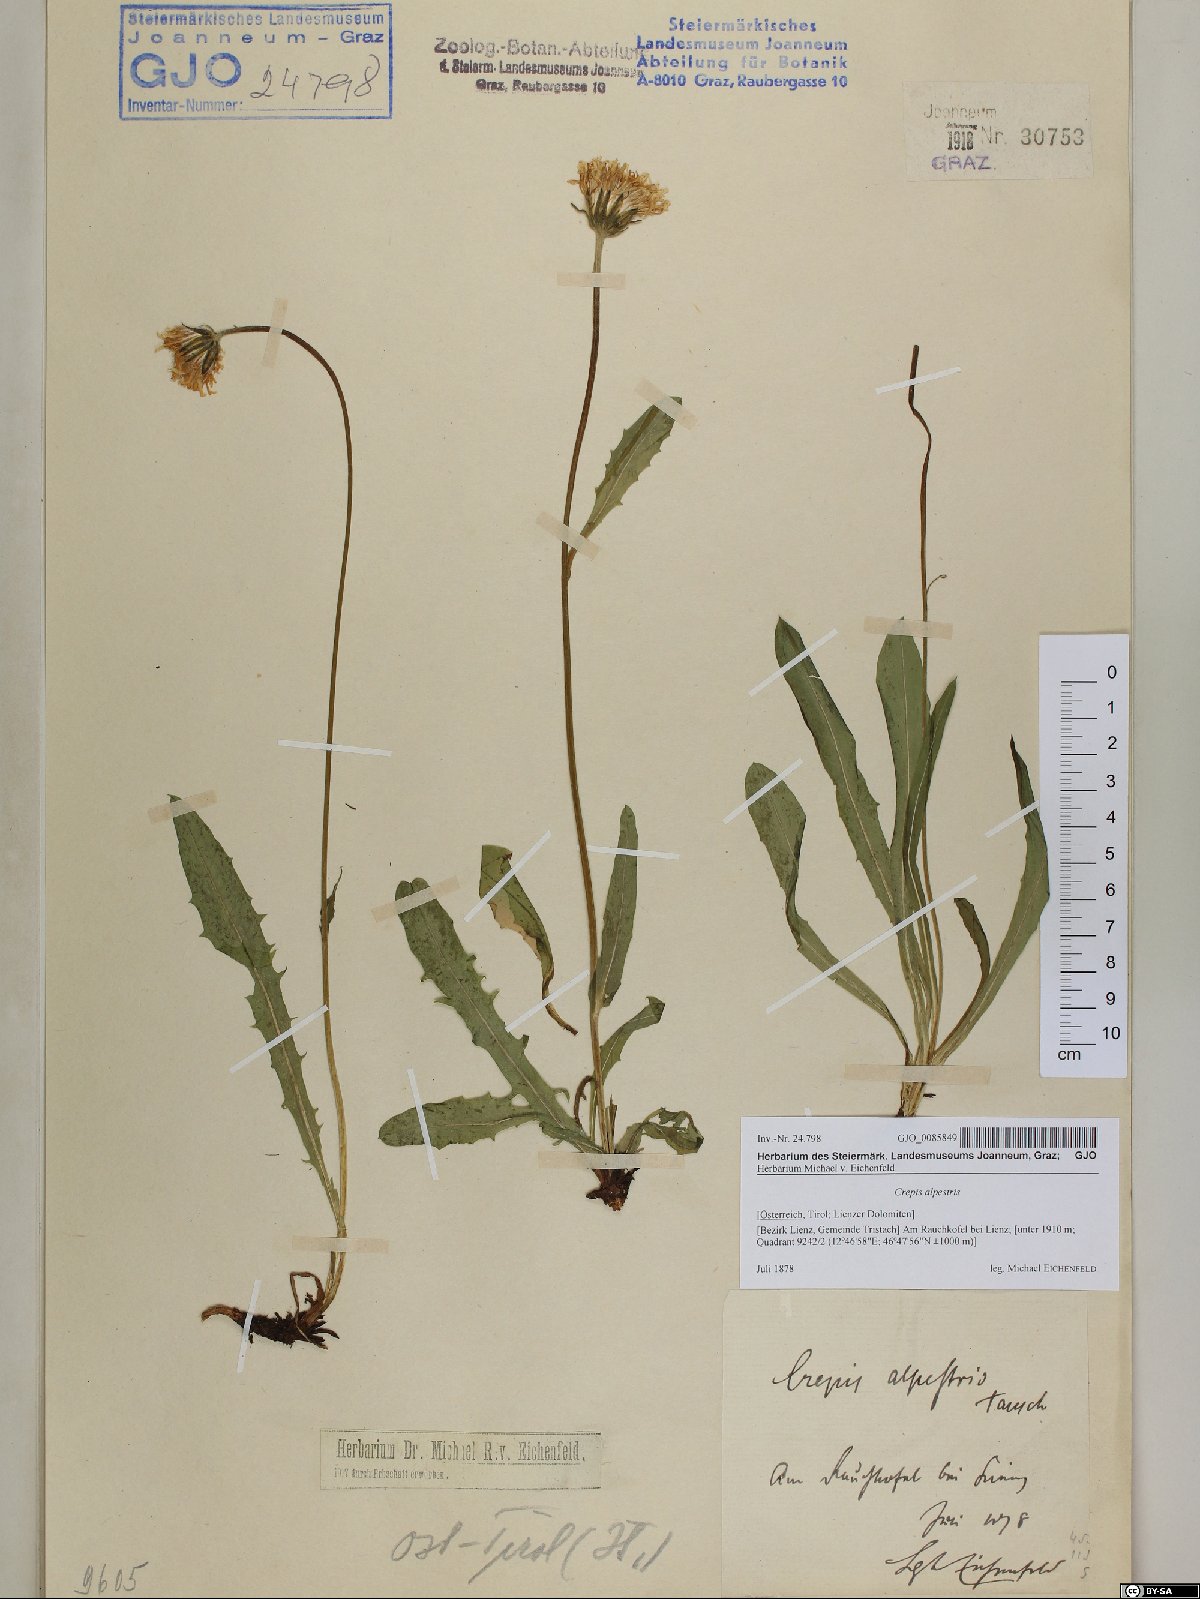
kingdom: Plantae
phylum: Tracheophyta
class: Magnoliopsida
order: Asterales
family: Asteraceae
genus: Crepis
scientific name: Crepis alpestris
